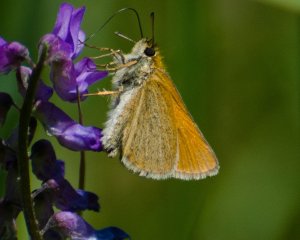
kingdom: Animalia
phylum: Arthropoda
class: Insecta
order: Lepidoptera
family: Hesperiidae
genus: Thymelicus
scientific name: Thymelicus lineola
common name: European Skipper
